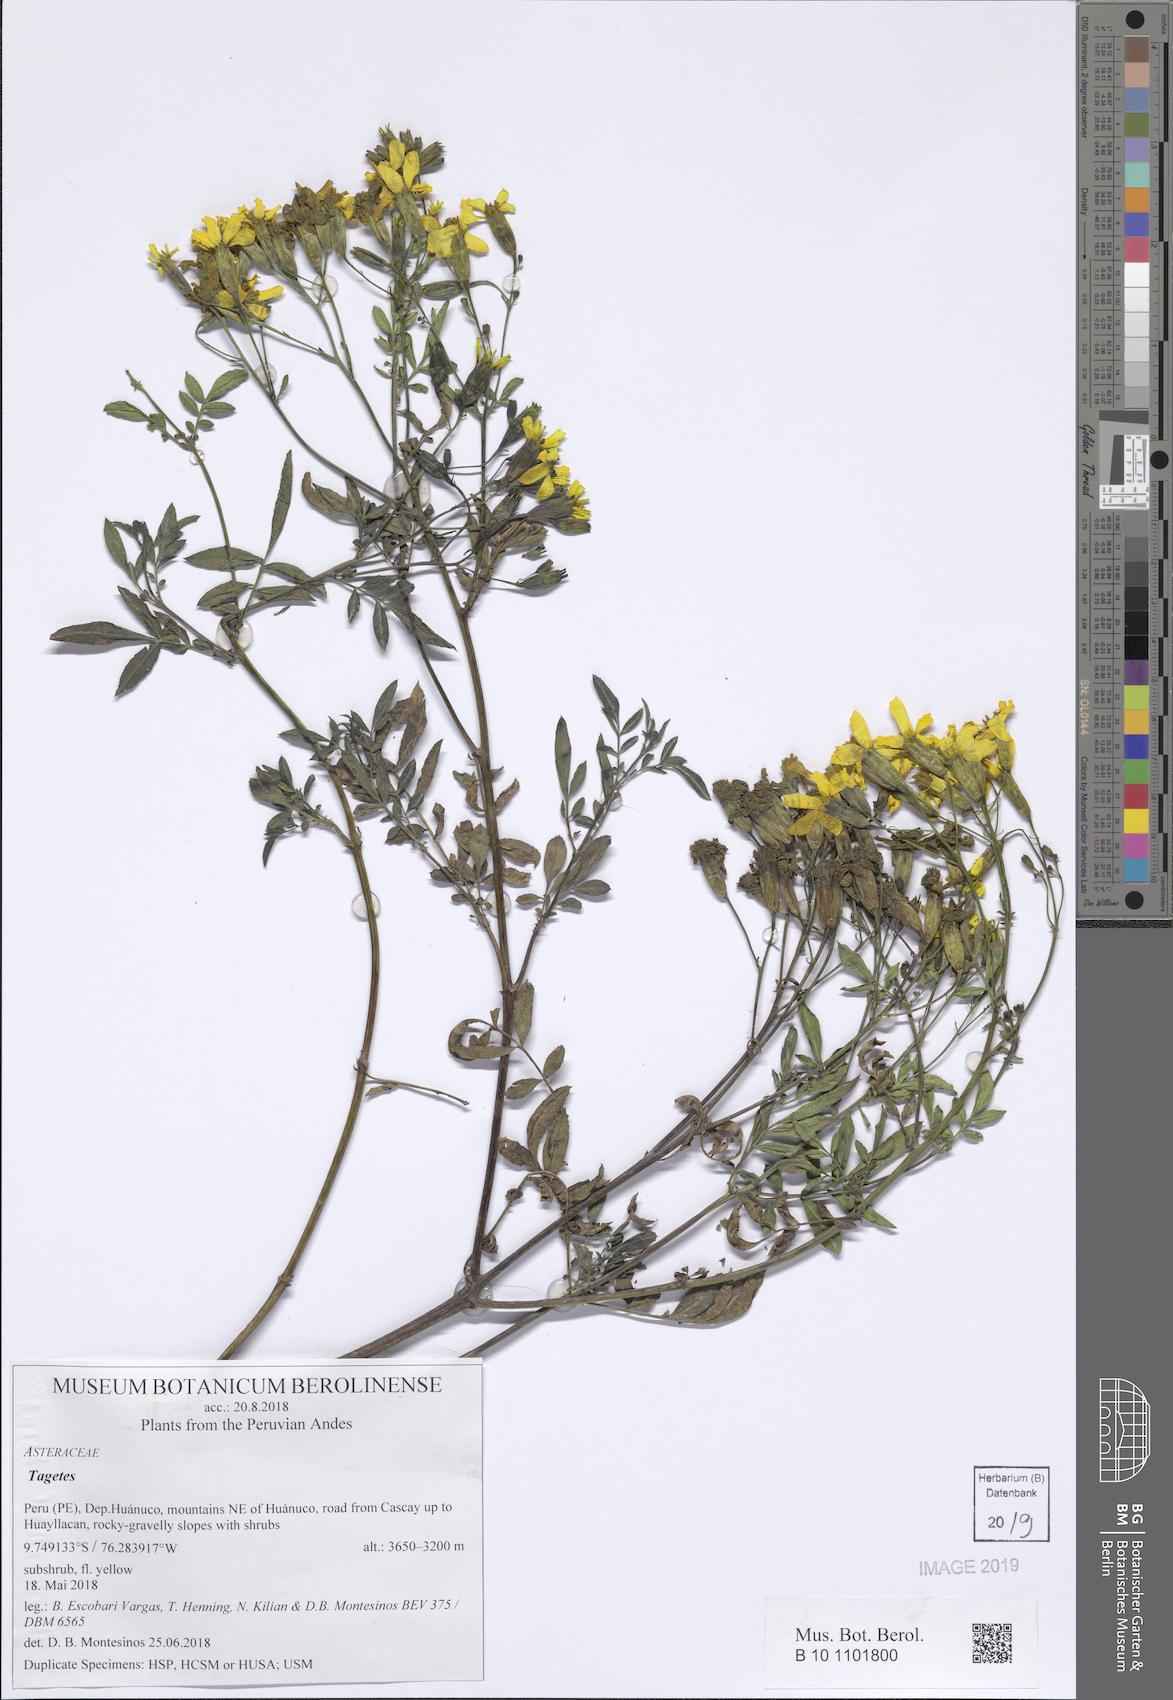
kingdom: Plantae
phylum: Tracheophyta
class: Magnoliopsida
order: Asterales
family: Asteraceae
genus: Tagetes
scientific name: Tagetes
